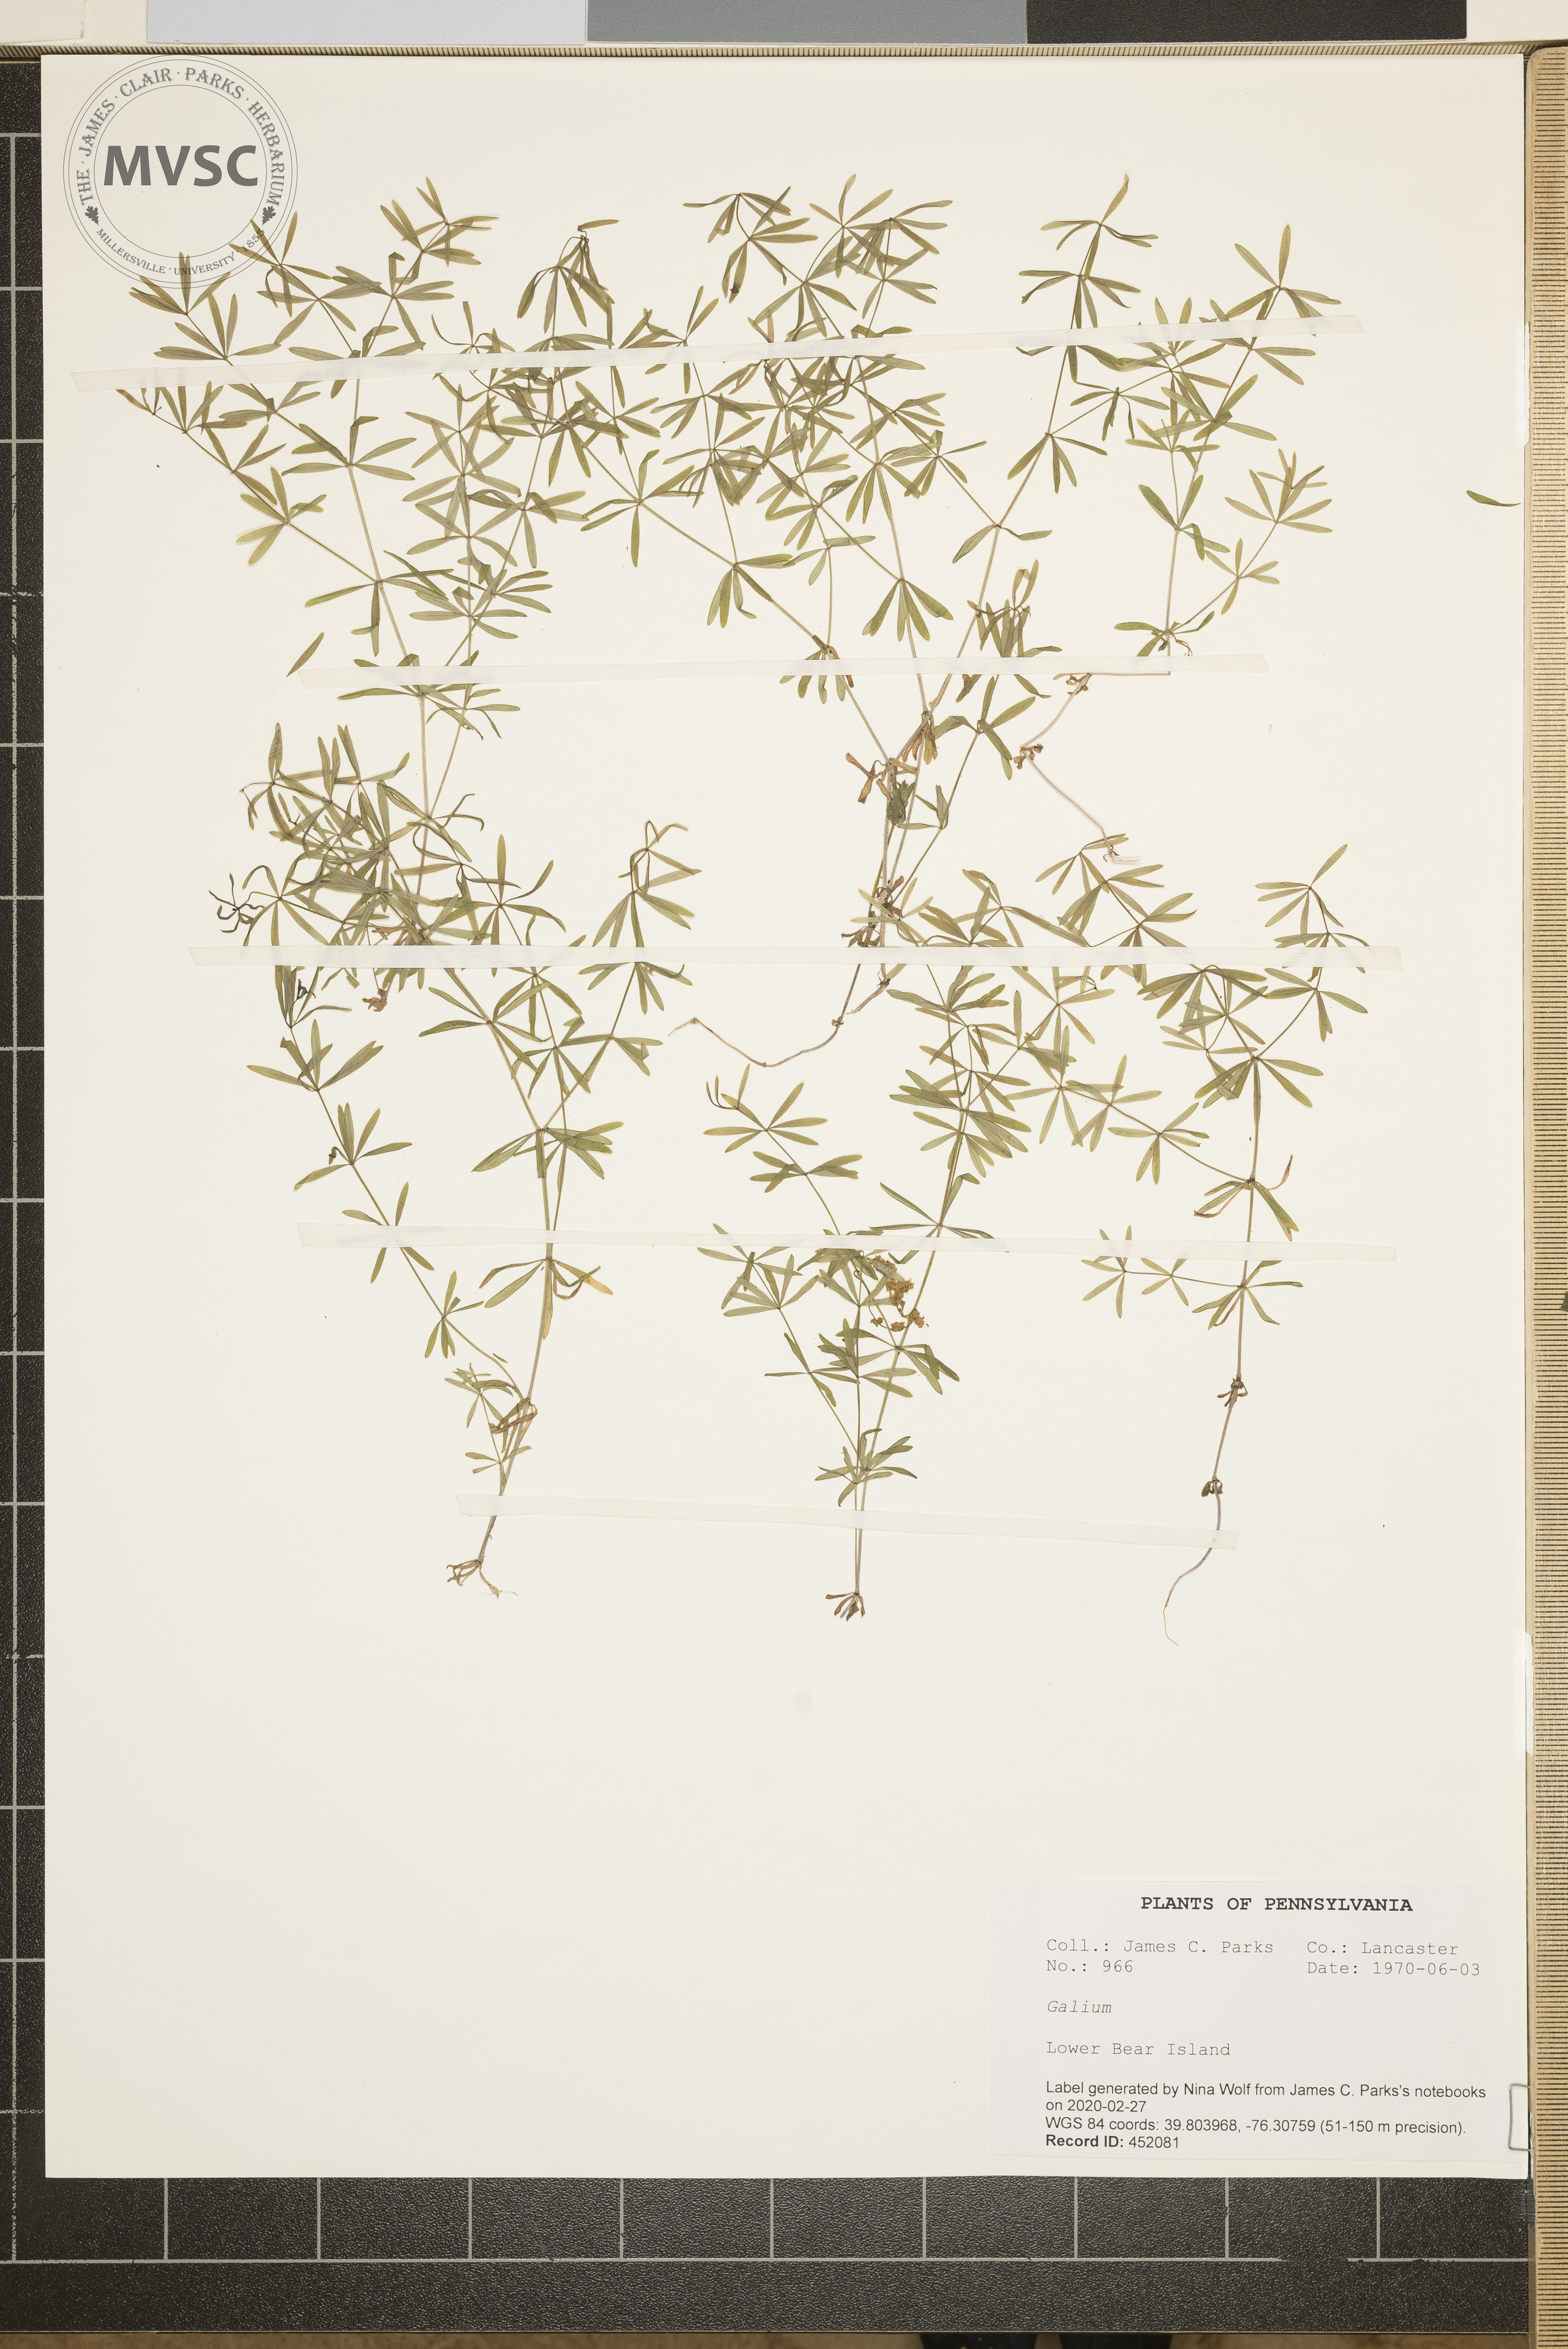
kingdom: Plantae
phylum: Tracheophyta
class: Magnoliopsida
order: Gentianales
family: Rubiaceae
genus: Galium
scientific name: Galium
